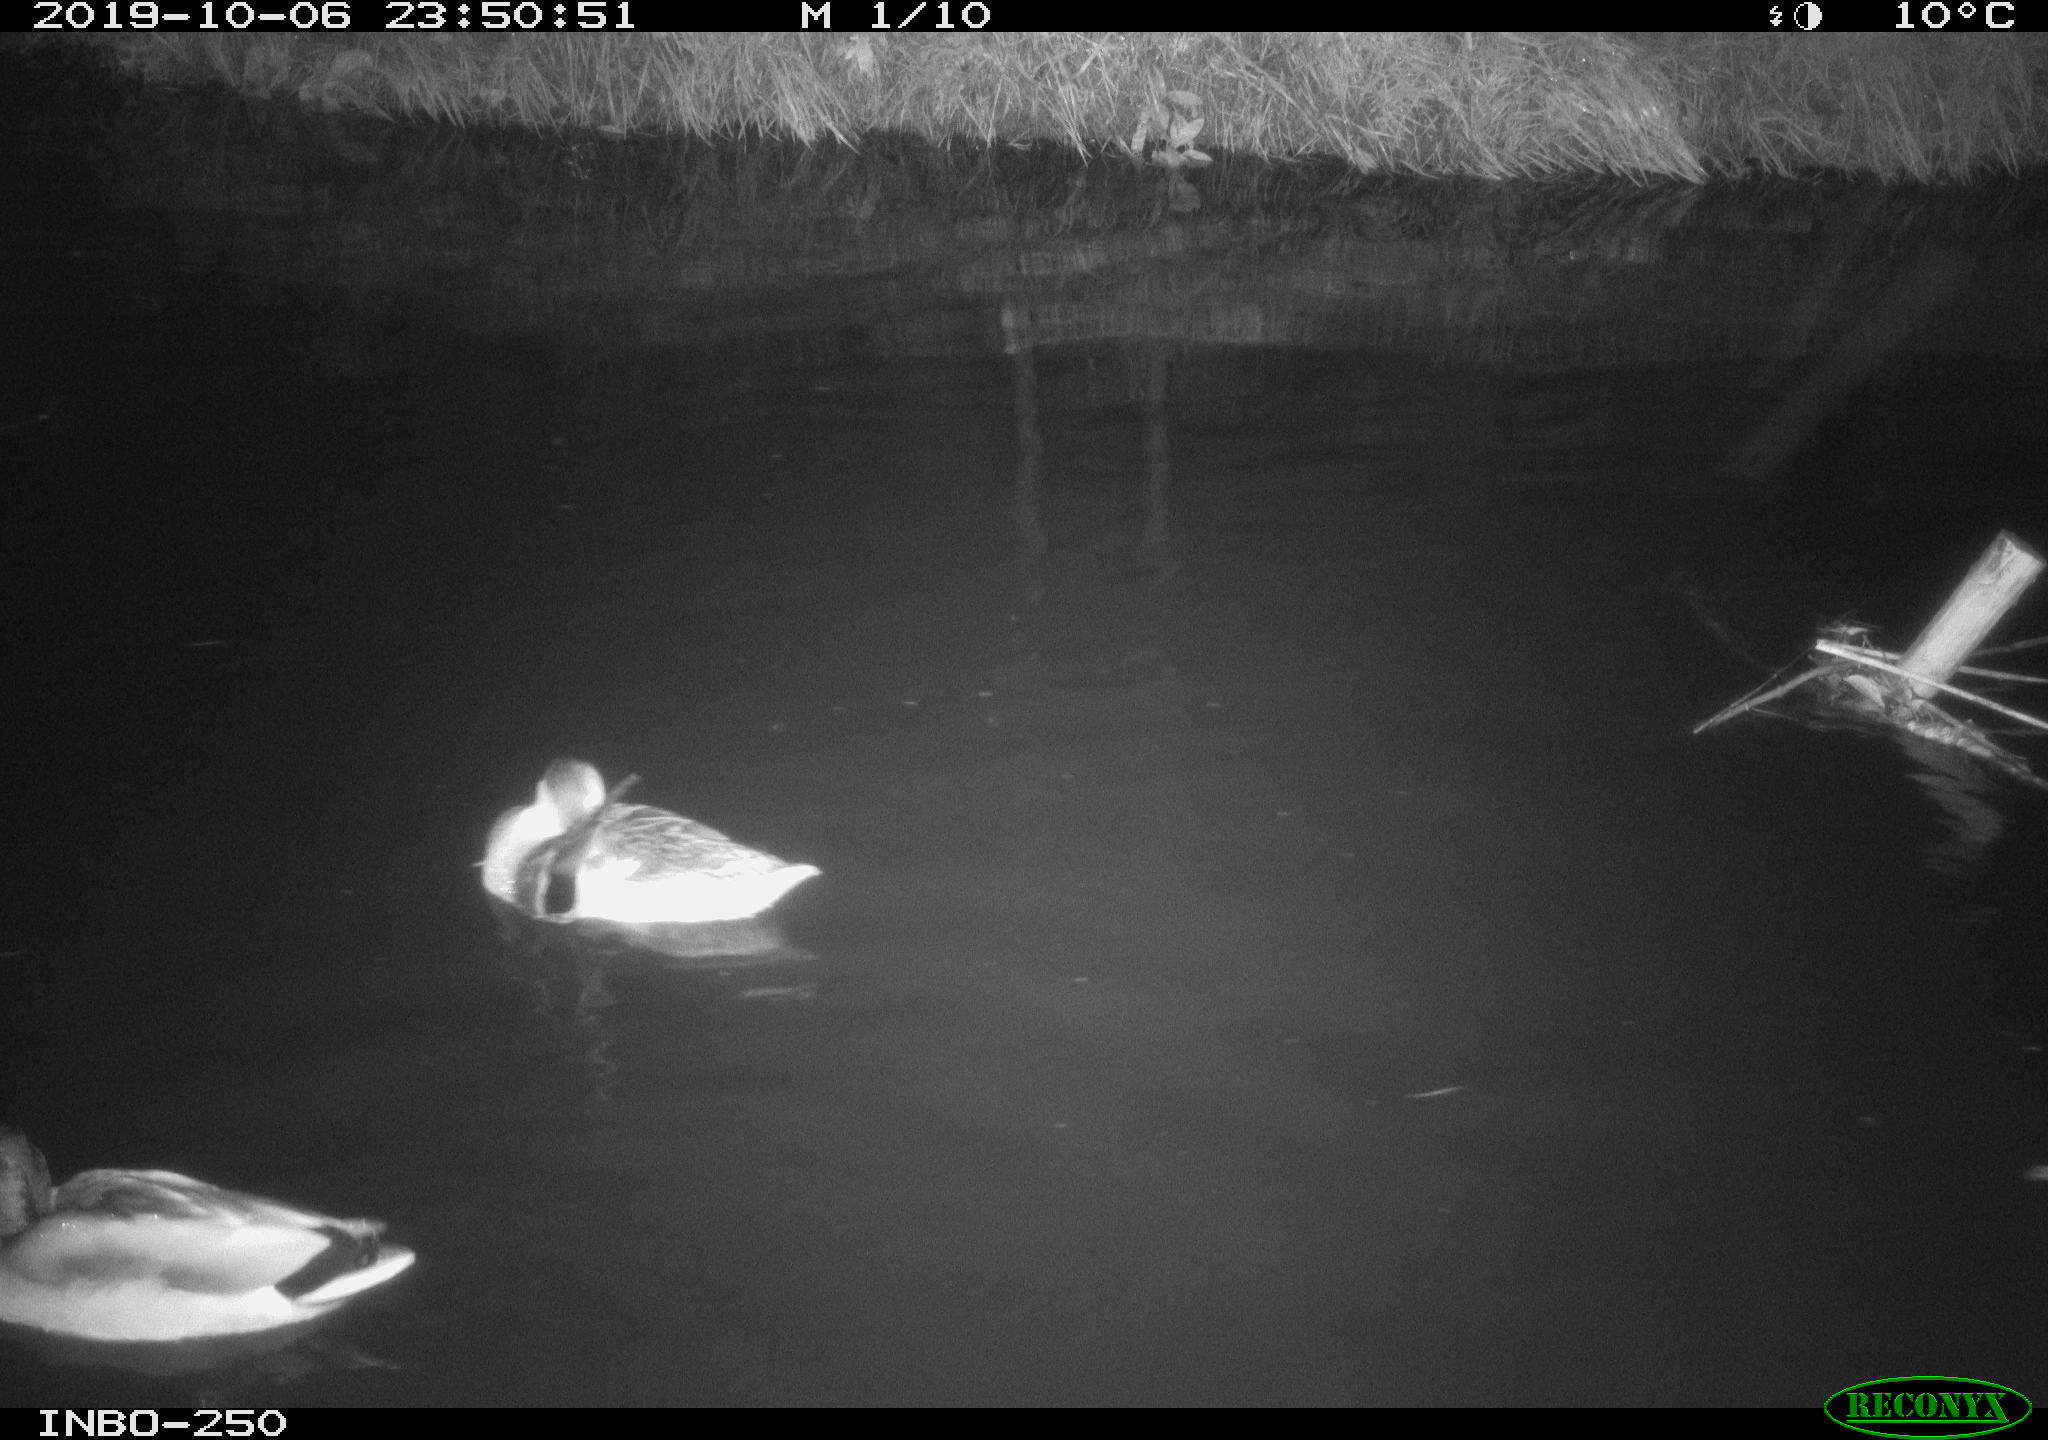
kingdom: Animalia
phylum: Chordata
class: Aves
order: Anseriformes
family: Anatidae
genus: Anas
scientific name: Anas platyrhynchos
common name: Mallard
